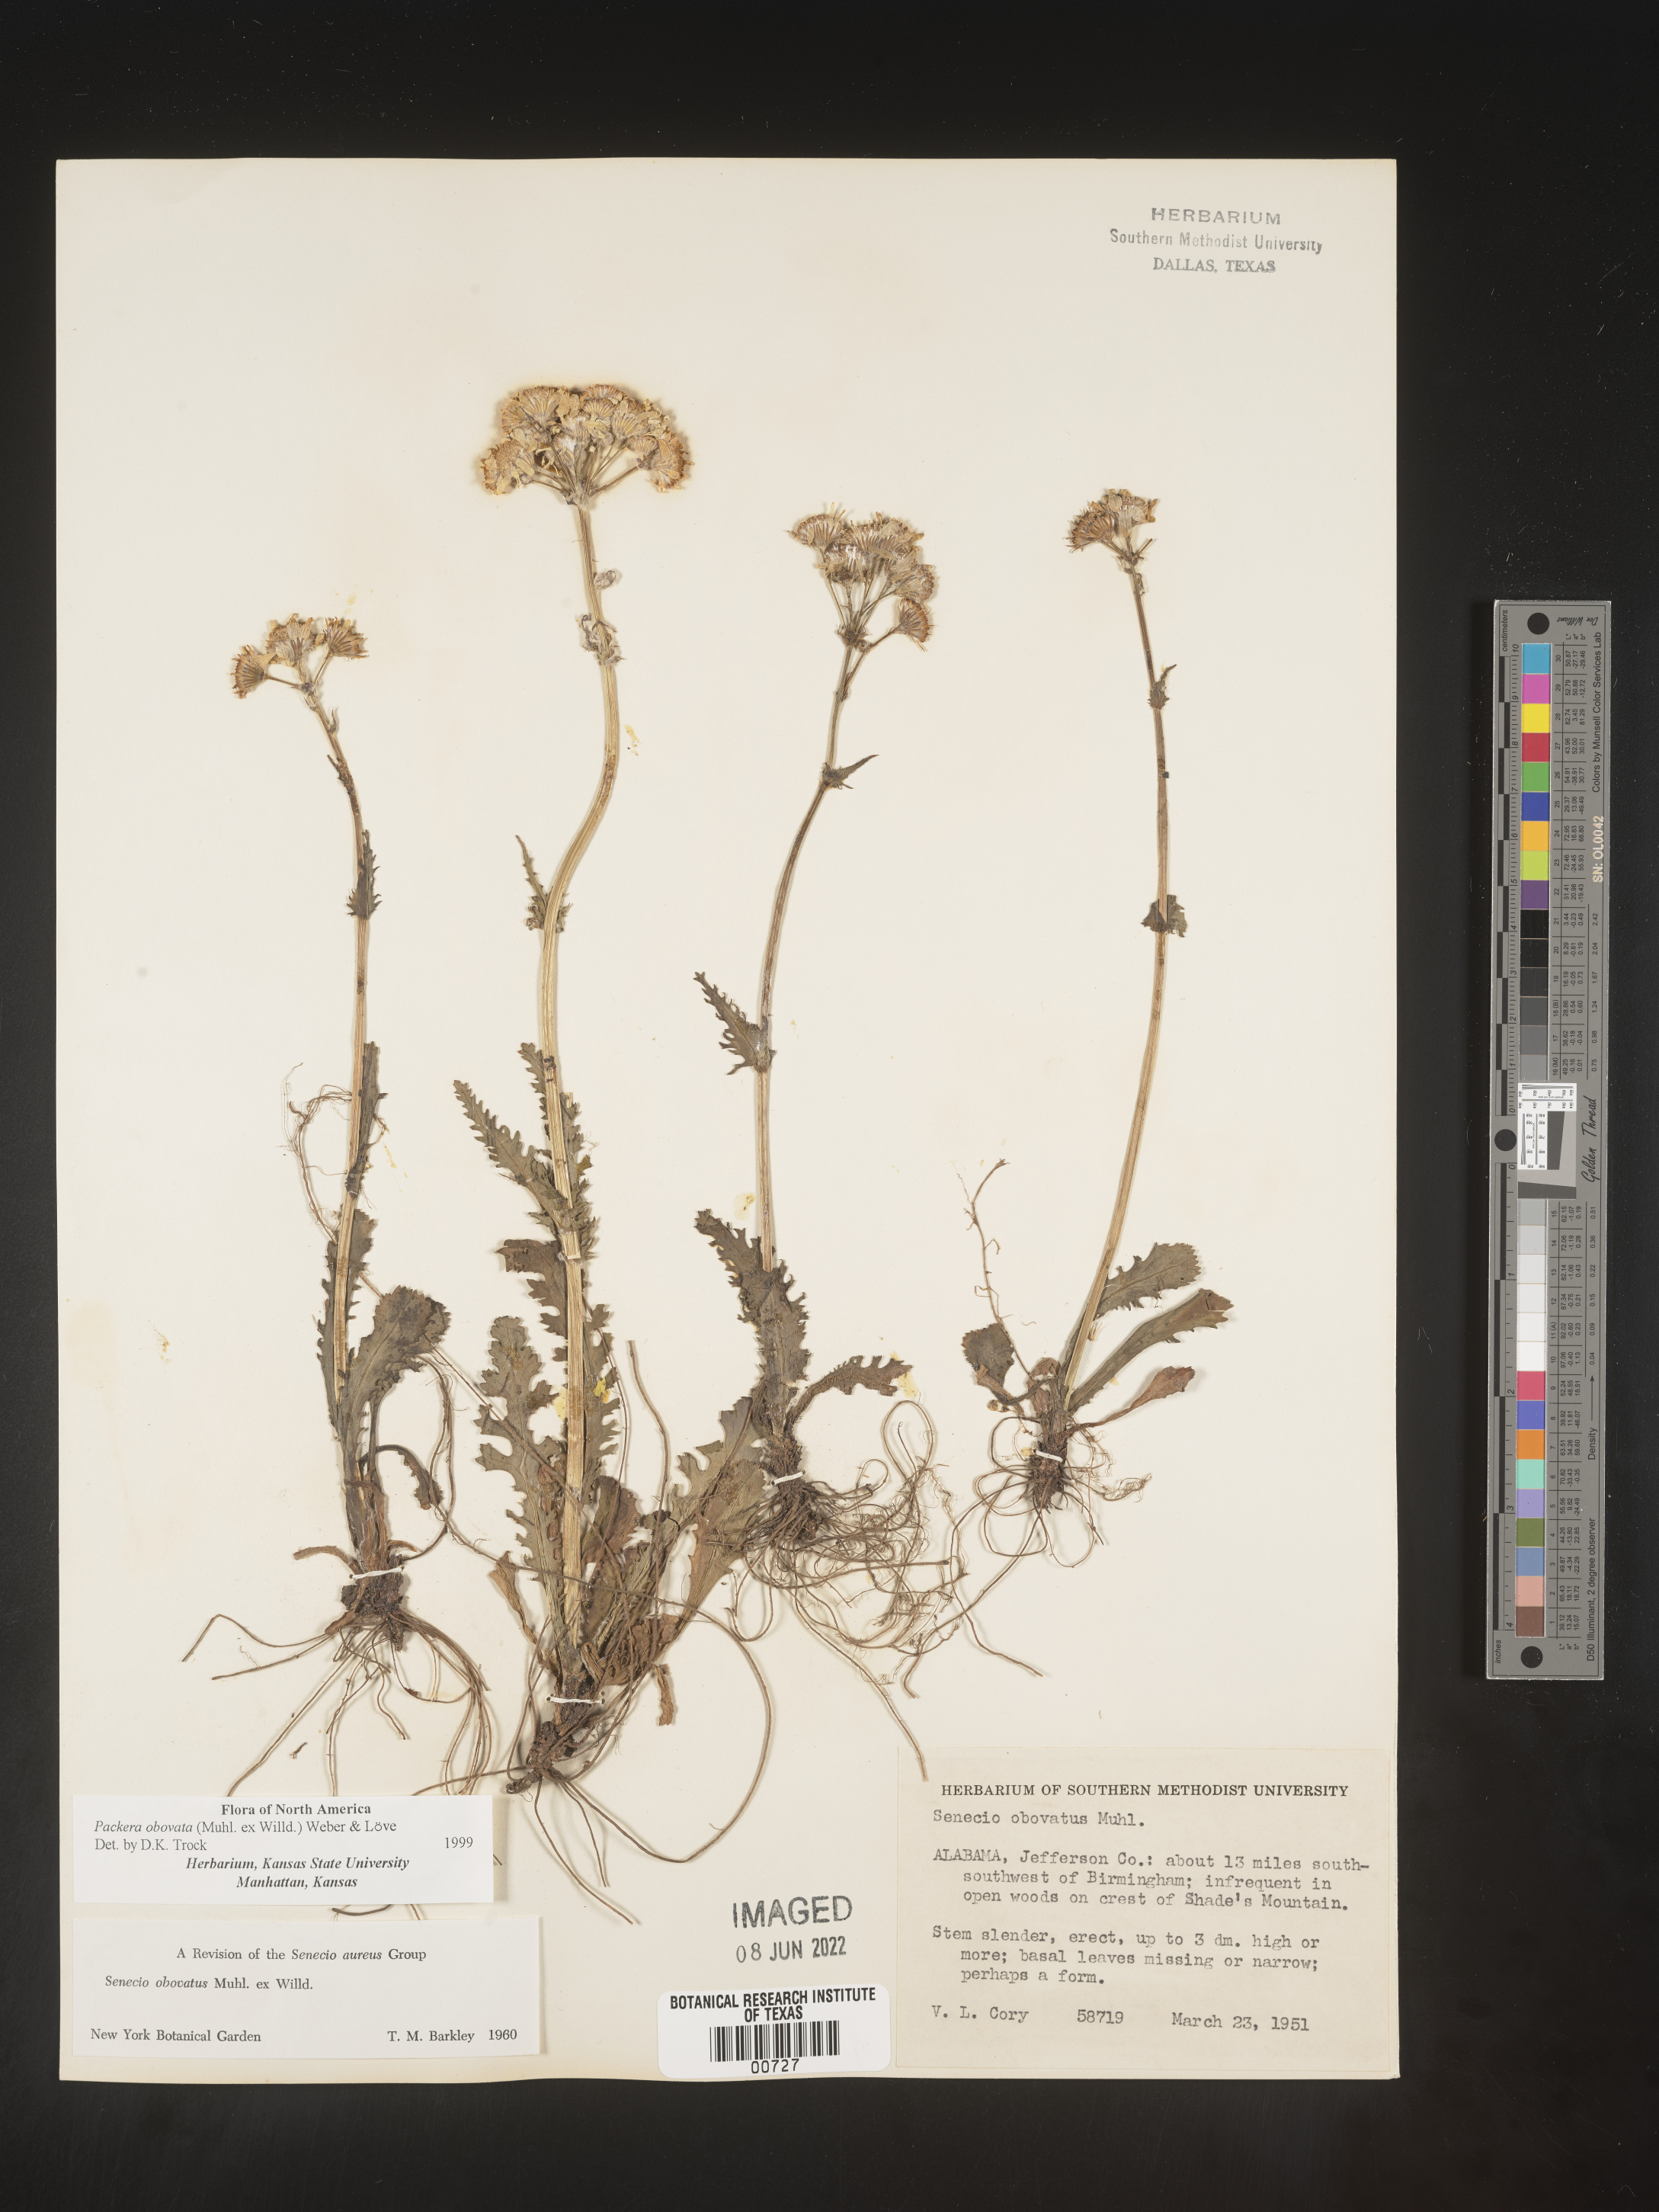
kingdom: Plantae
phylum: Tracheophyta
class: Magnoliopsida
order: Asterales
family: Asteraceae
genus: Packera
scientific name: Packera obovata
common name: Round-leaf ragwort
